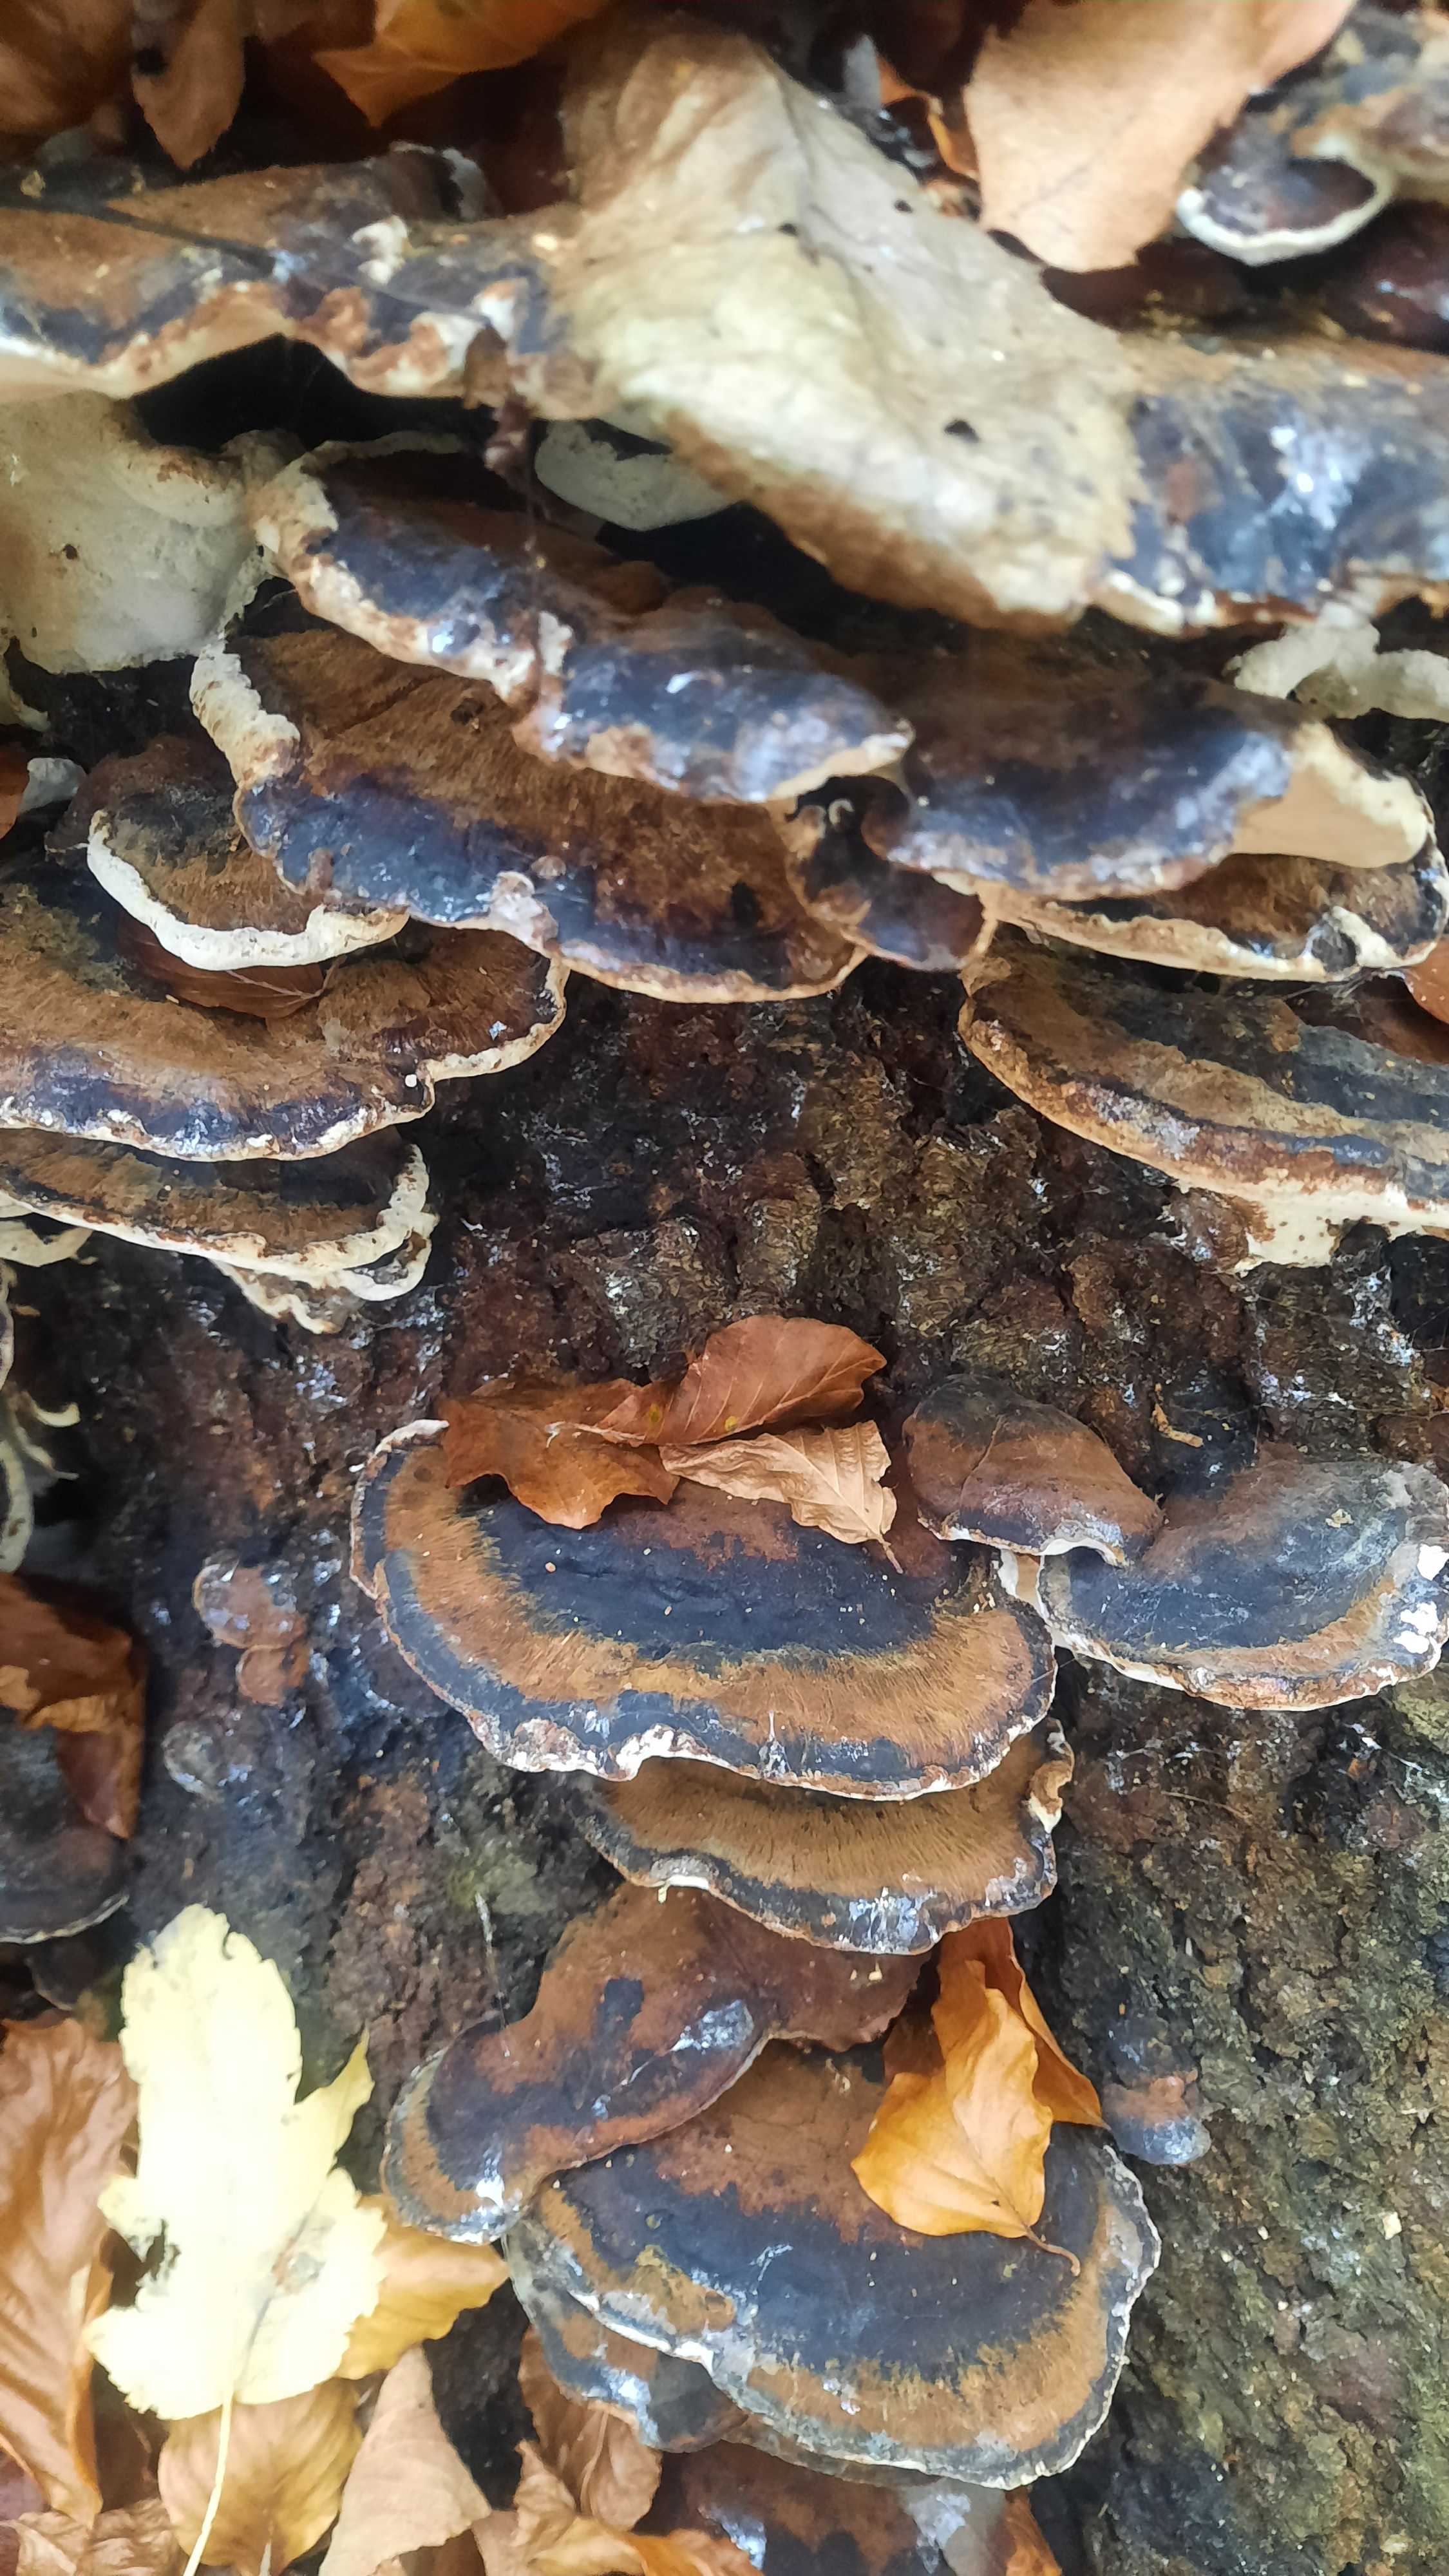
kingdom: Fungi
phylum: Basidiomycota
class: Agaricomycetes
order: Polyporales
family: Ischnodermataceae
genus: Ischnoderma
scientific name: Ischnoderma resinosum
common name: løv-tjæreporesvamp
